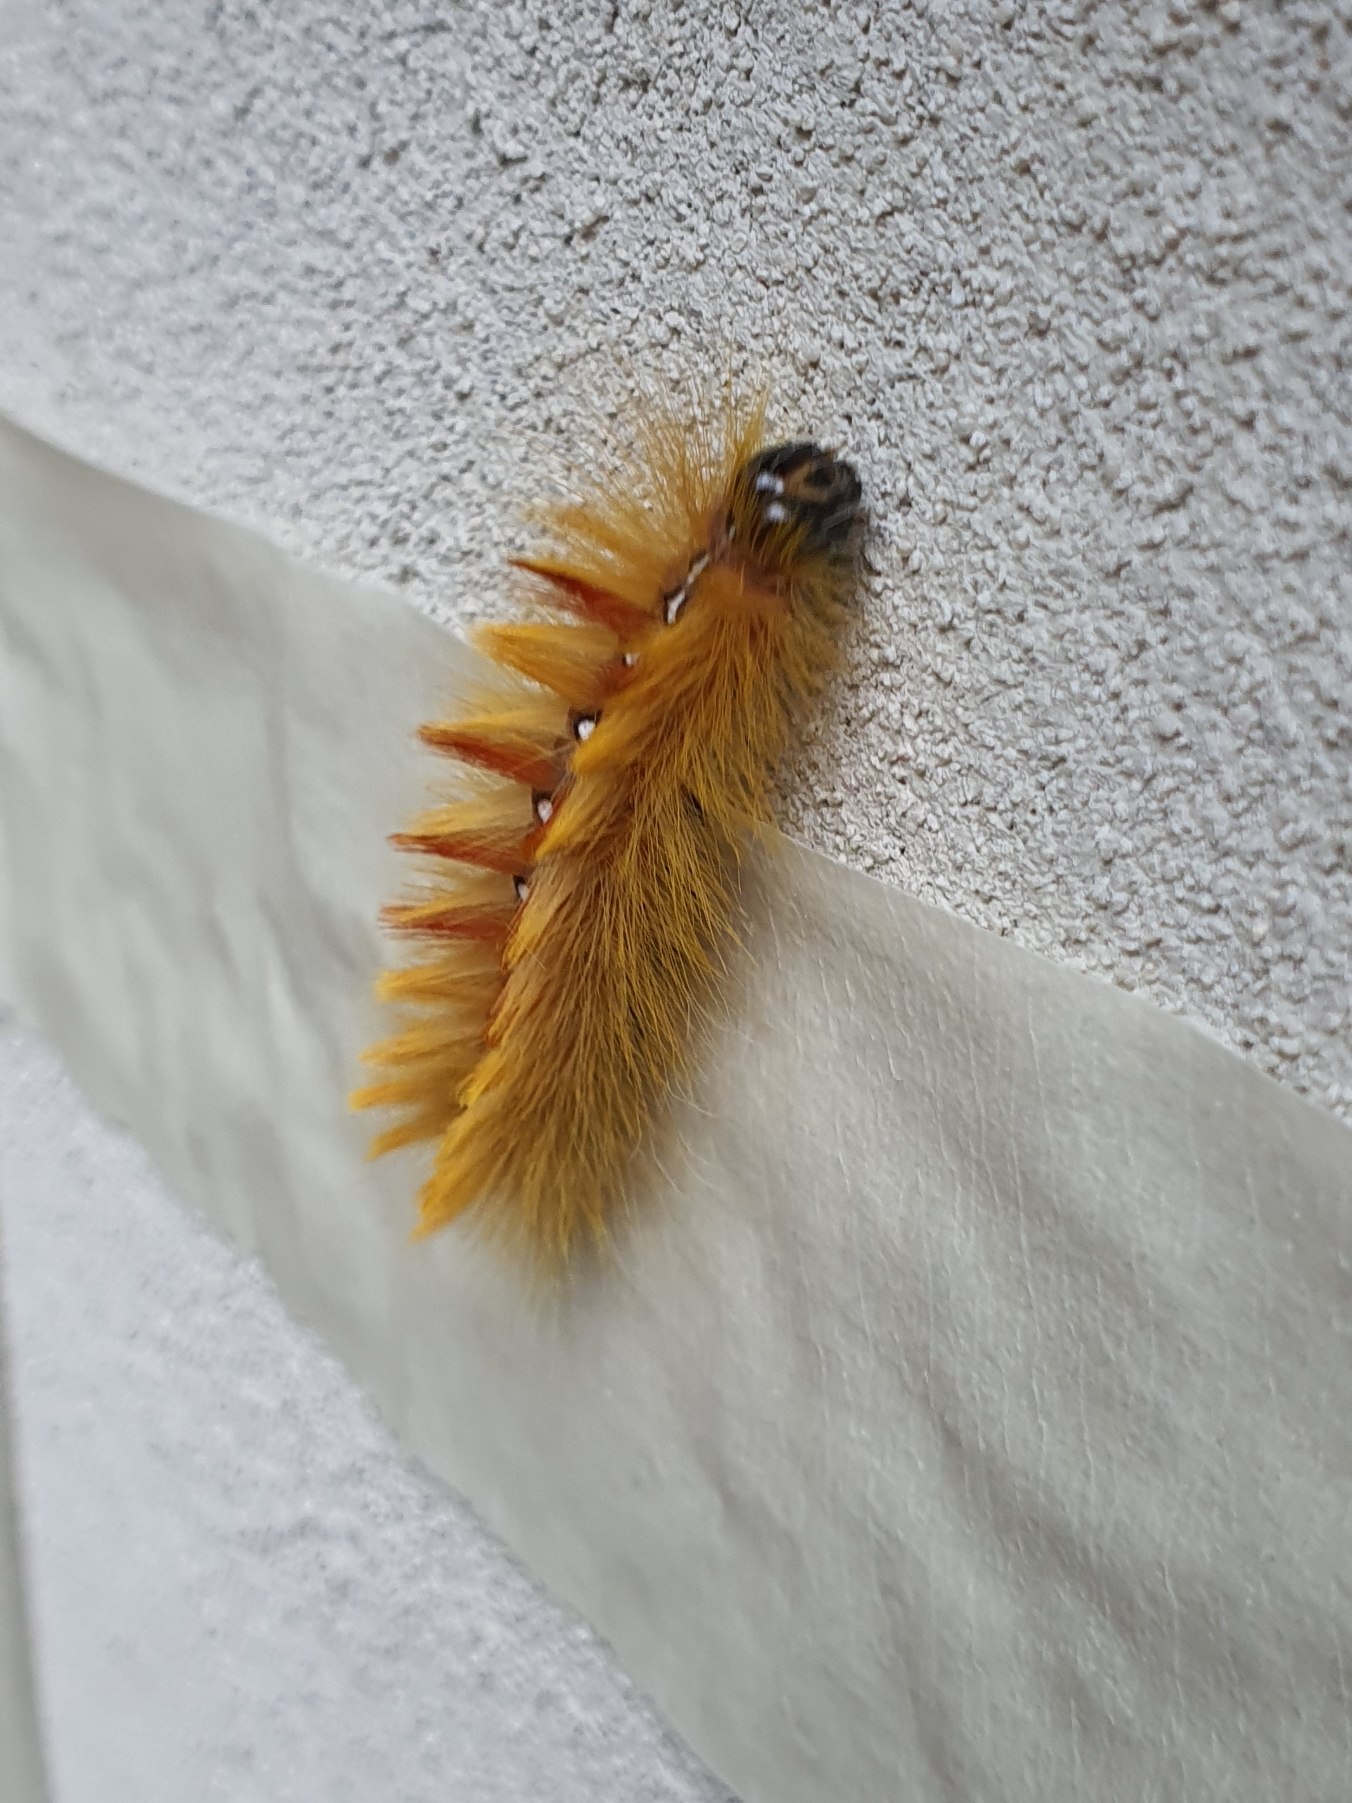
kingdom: Animalia
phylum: Arthropoda
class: Insecta
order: Lepidoptera
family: Noctuidae
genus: Acronicta
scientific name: Acronicta aceris
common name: Ahornugle
